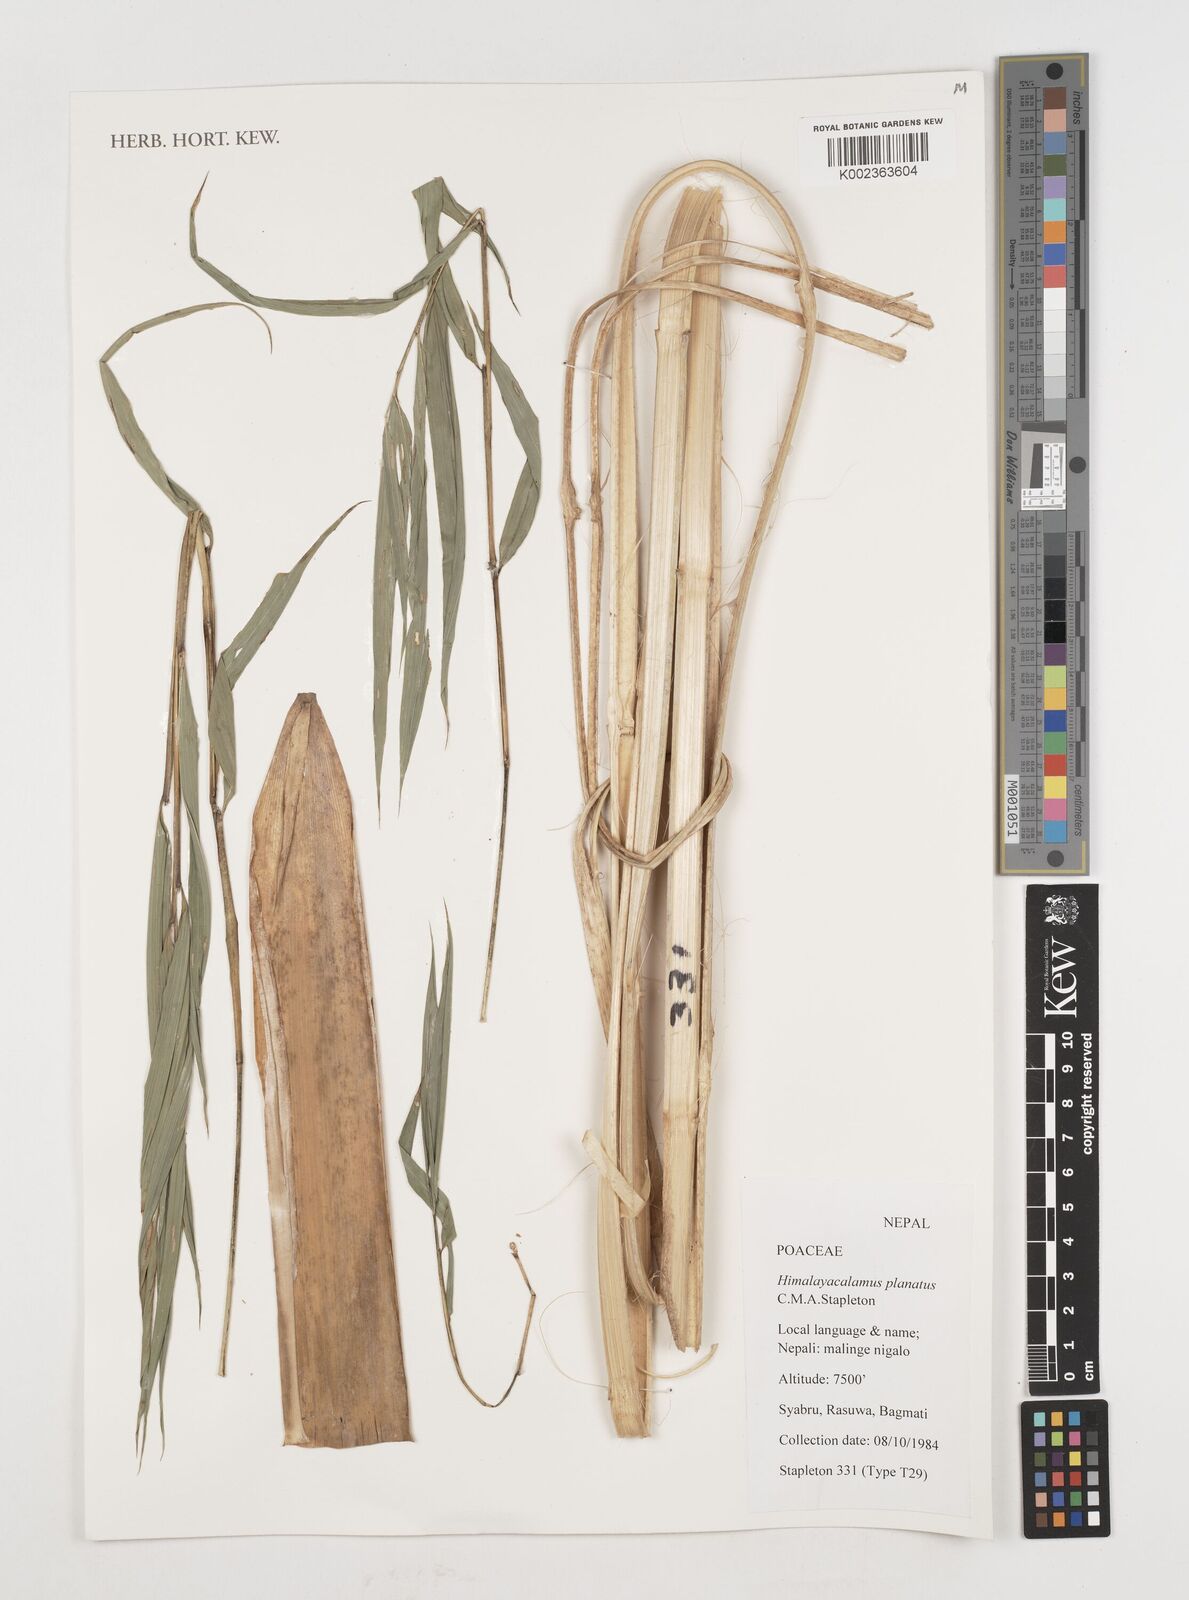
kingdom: Plantae
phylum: Tracheophyta
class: Liliopsida
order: Poales
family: Poaceae
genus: Himalayacalamus
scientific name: Himalayacalamus planatus
